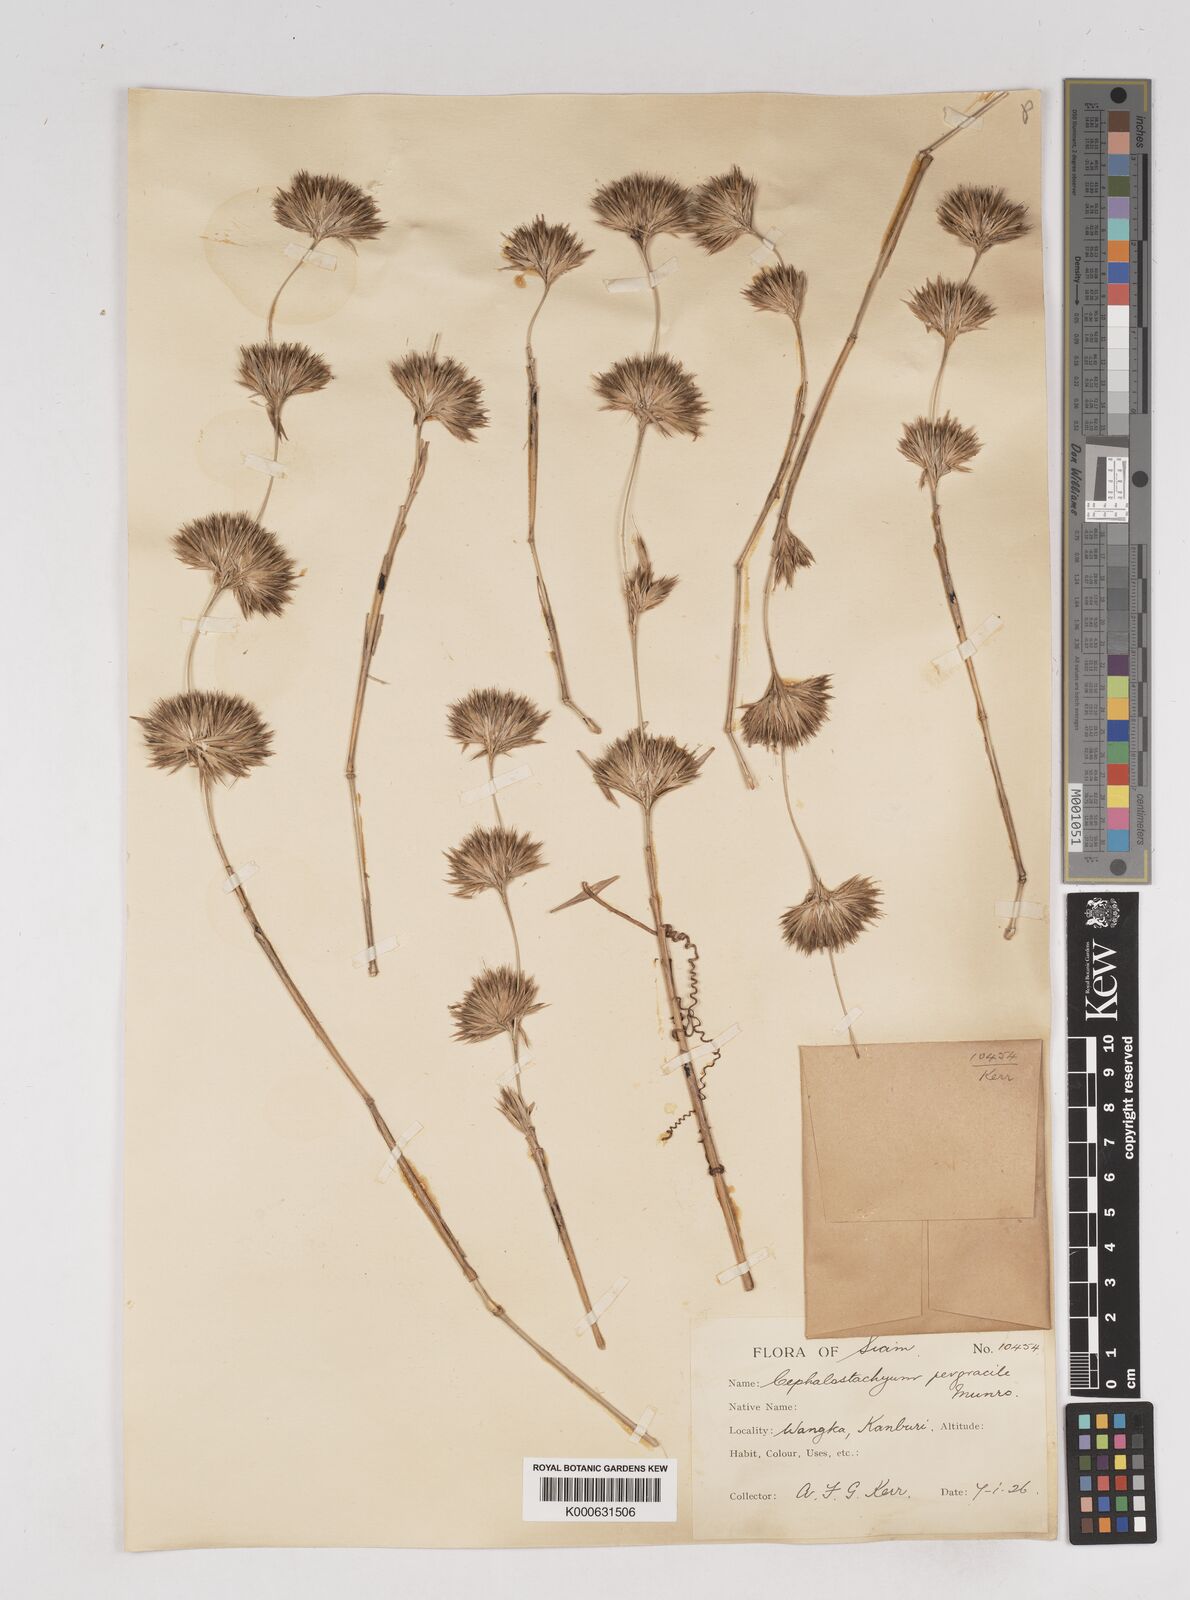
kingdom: Plantae
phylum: Tracheophyta
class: Liliopsida
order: Poales
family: Poaceae
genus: Schizostachyum
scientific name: Schizostachyum pergracile
